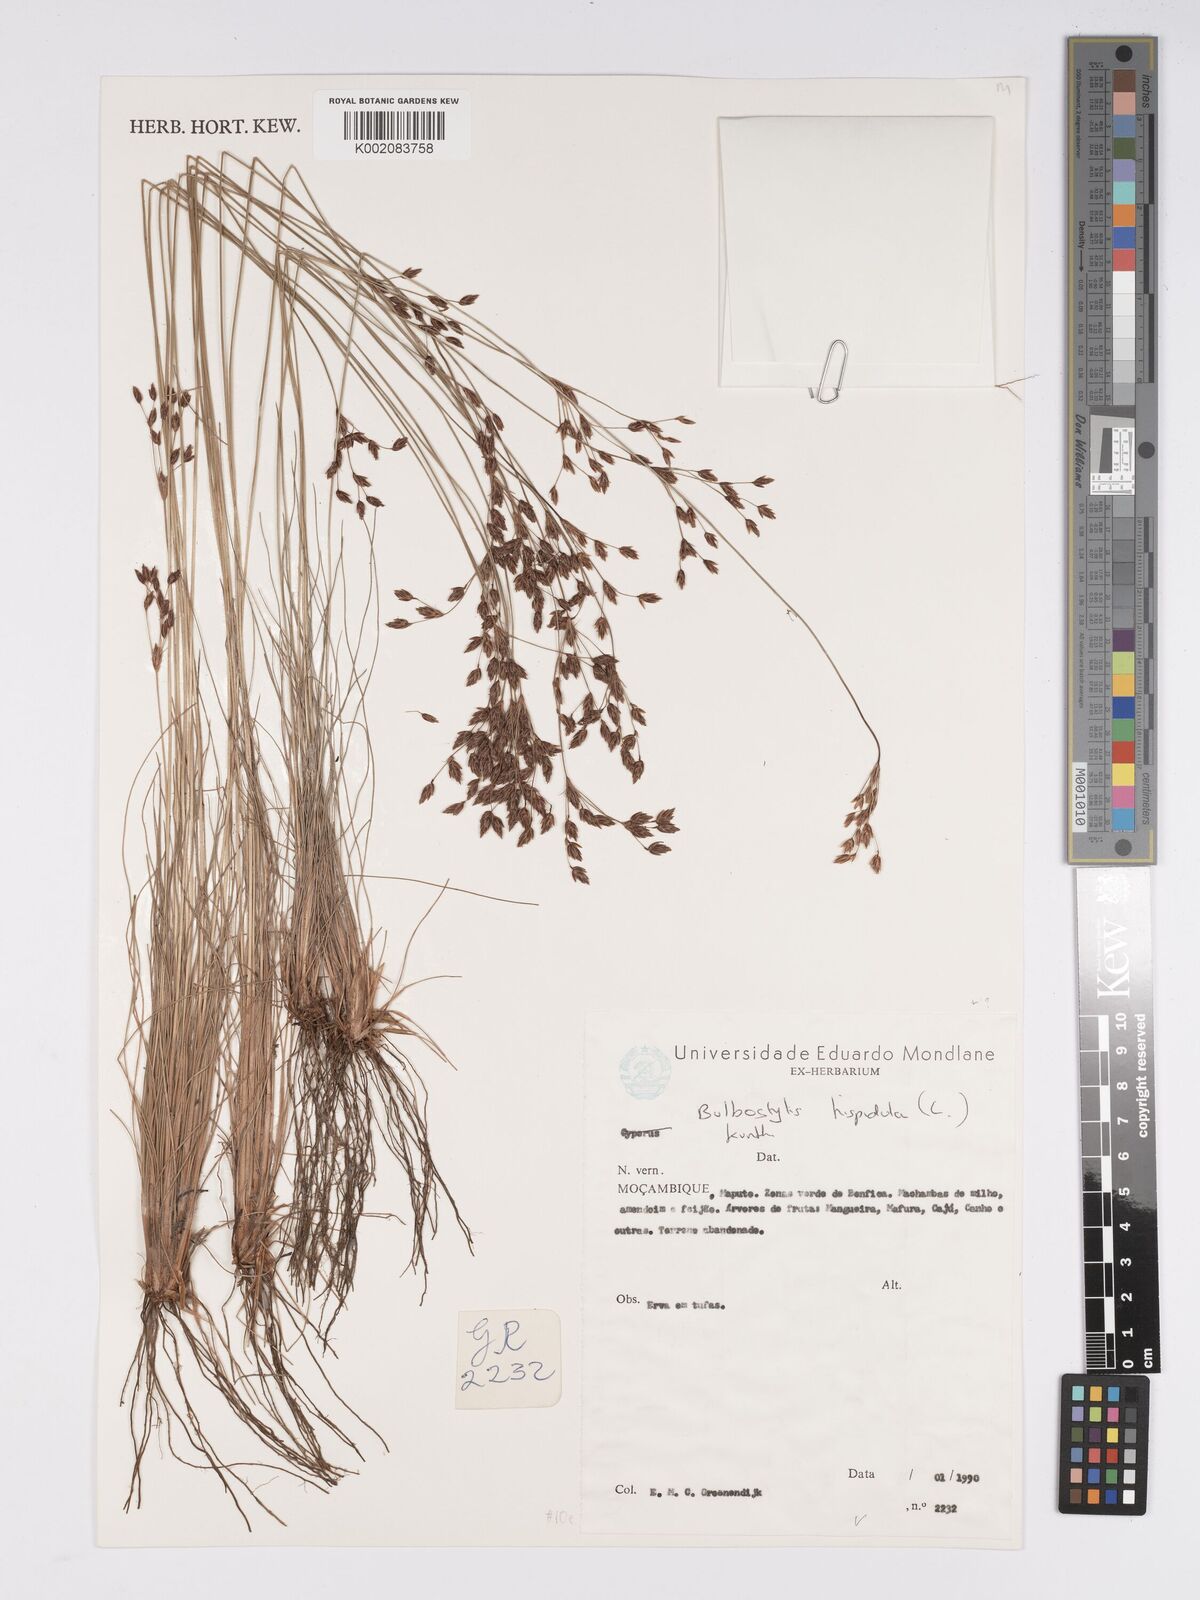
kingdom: Plantae
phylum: Tracheophyta
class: Liliopsida
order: Poales
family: Cyperaceae
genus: Bulbostylis
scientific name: Bulbostylis hispidula
